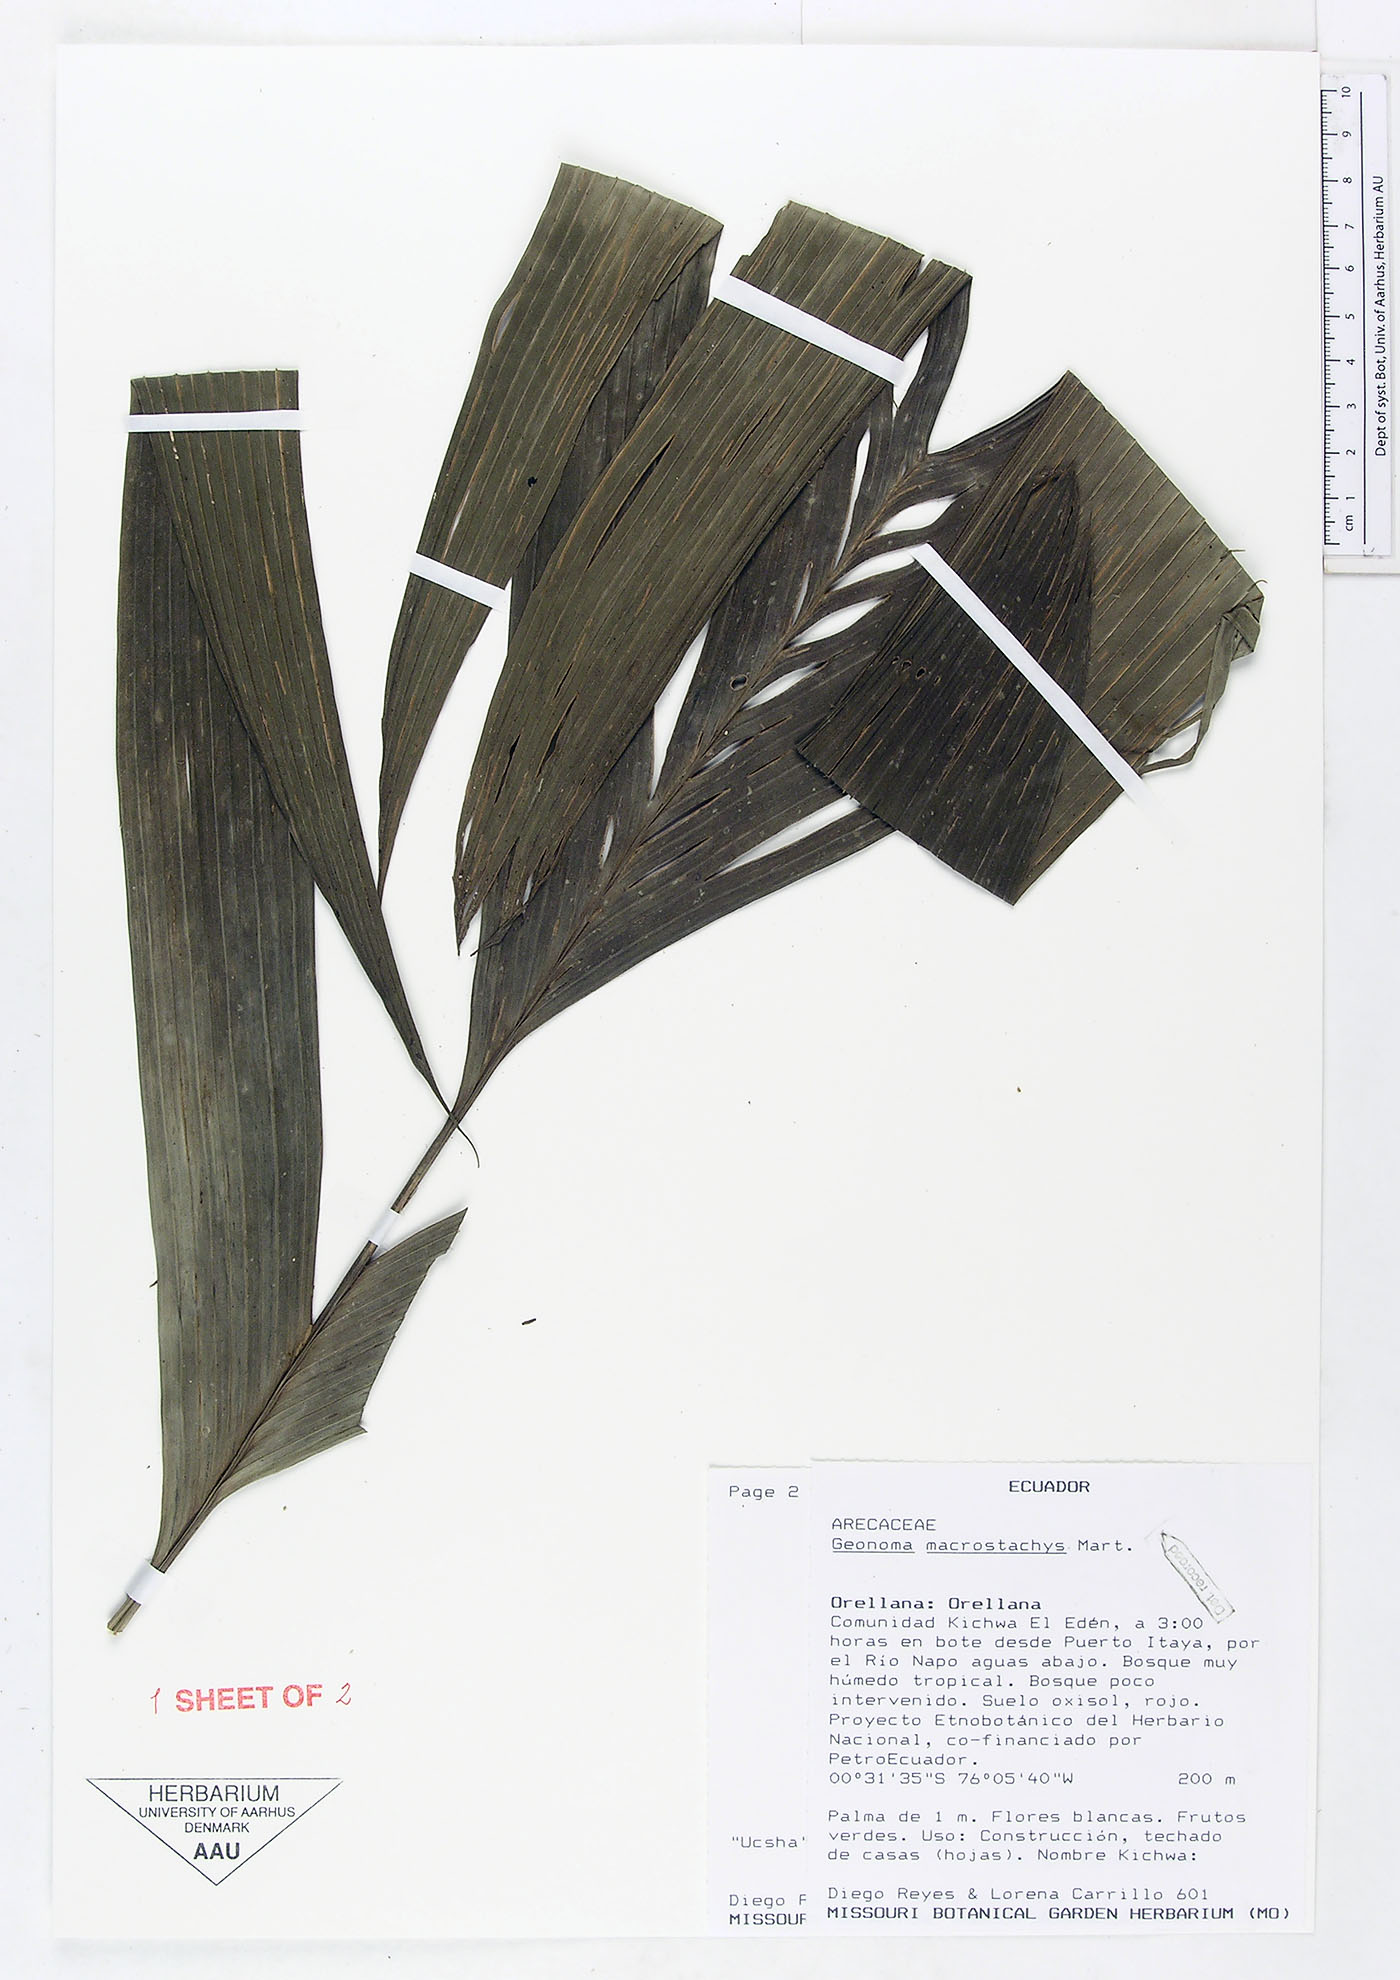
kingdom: Plantae
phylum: Tracheophyta
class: Liliopsida
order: Arecales
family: Arecaceae
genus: Geonoma
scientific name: Geonoma macrostachys
